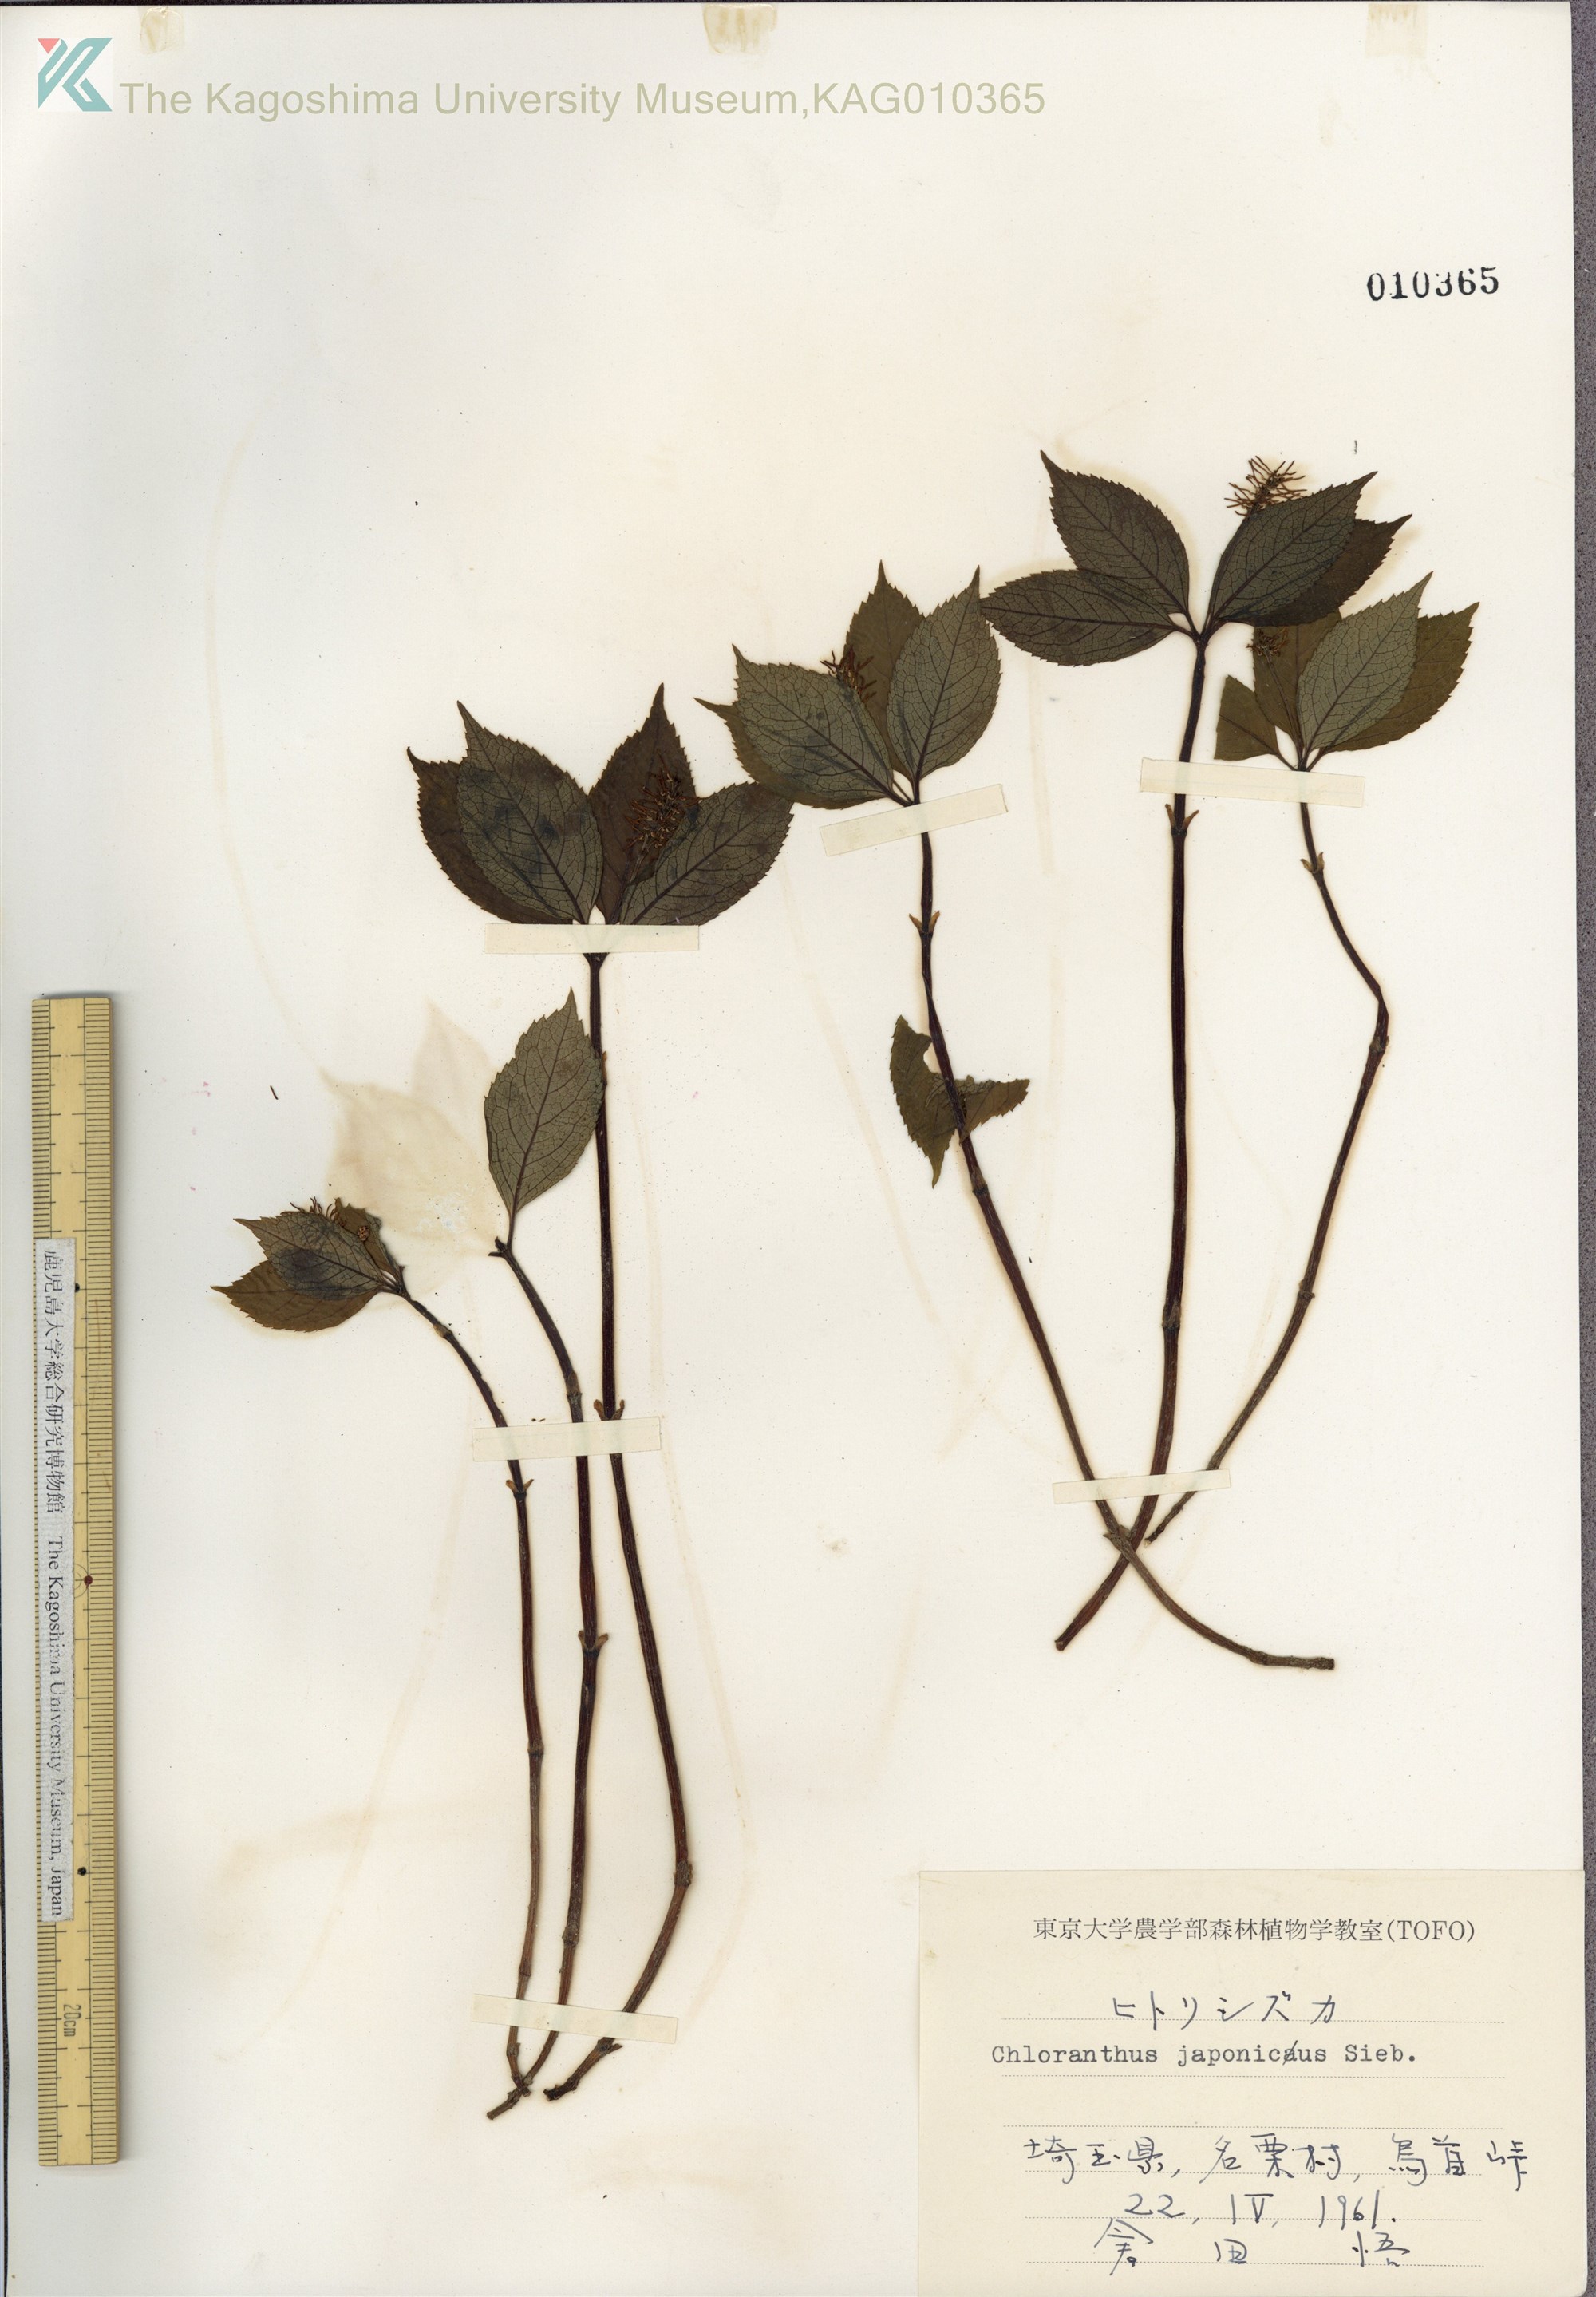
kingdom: Plantae
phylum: Tracheophyta
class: Magnoliopsida
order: Chloranthales
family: Chloranthaceae
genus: Chloranthus
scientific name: Chloranthus japonicus
